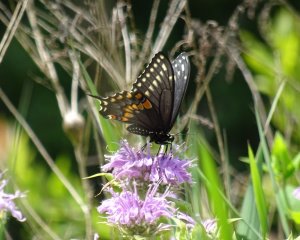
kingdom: Animalia
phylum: Arthropoda
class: Insecta
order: Lepidoptera
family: Papilionidae
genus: Papilio
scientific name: Papilio polyxenes
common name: Black Swallowtail
